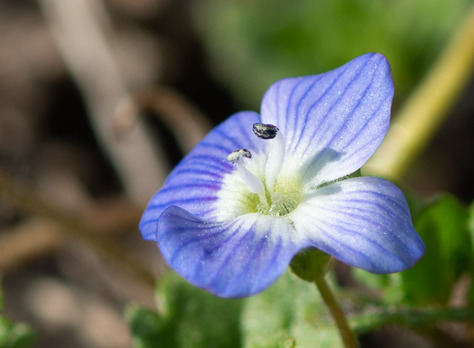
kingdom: Plantae
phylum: Tracheophyta
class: Magnoliopsida
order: Lamiales
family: Plantaginaceae
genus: Veronica
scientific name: Veronica persica
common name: Storkronet ærenpris
